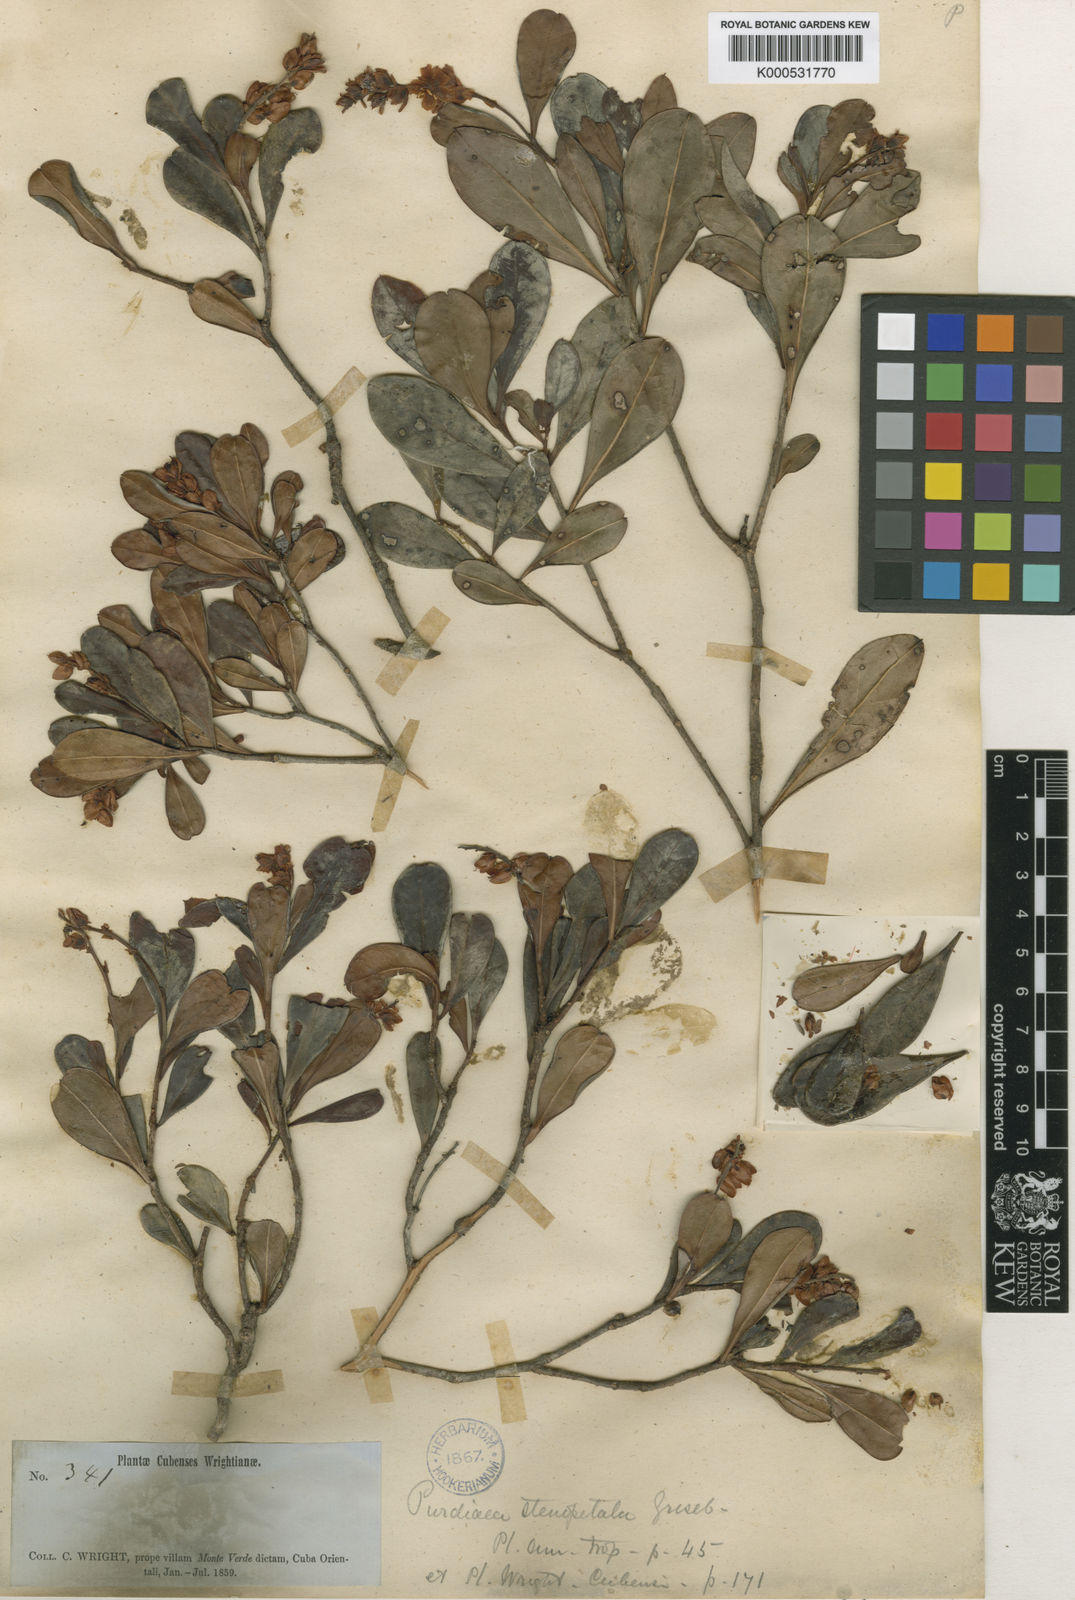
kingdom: Plantae
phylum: Tracheophyta
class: Magnoliopsida
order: Ericales
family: Clethraceae
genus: Purdiaea
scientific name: Purdiaea stenopetala
